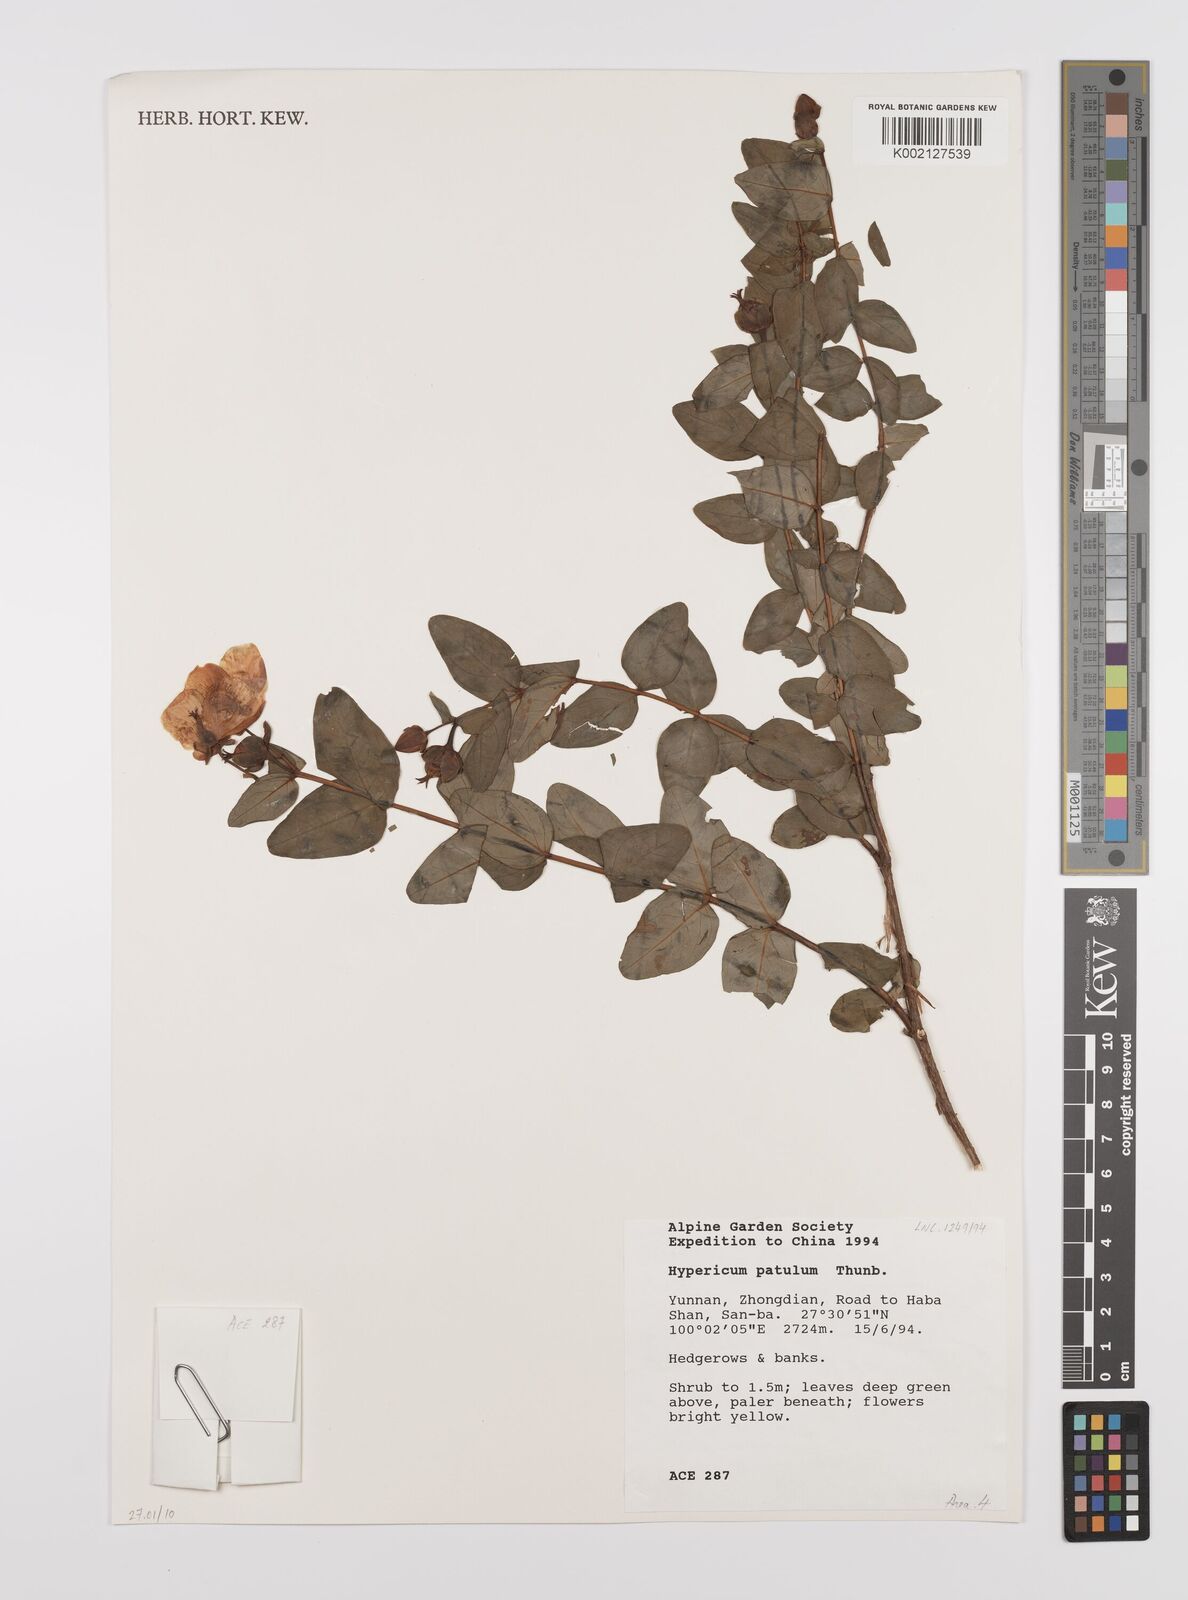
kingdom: Plantae
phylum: Tracheophyta
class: Magnoliopsida
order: Malpighiales
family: Hypericaceae
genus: Hypericum
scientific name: Hypericum patulum
